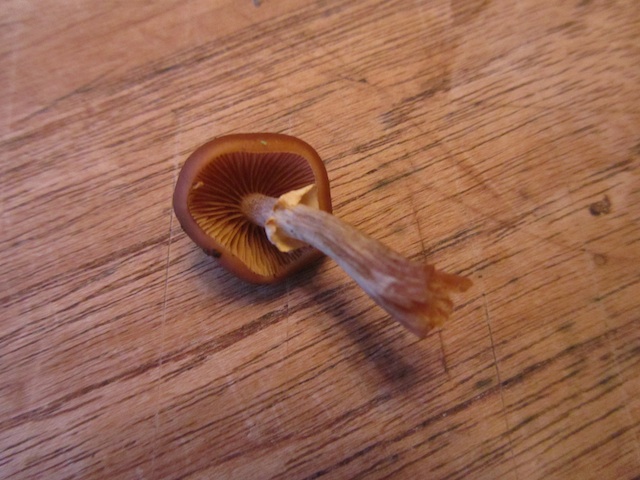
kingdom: Fungi
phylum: Basidiomycota
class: Agaricomycetes
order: Agaricales
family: Hymenogastraceae
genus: Galerina
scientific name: Galerina marginata
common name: randbæltet hjelmhat
